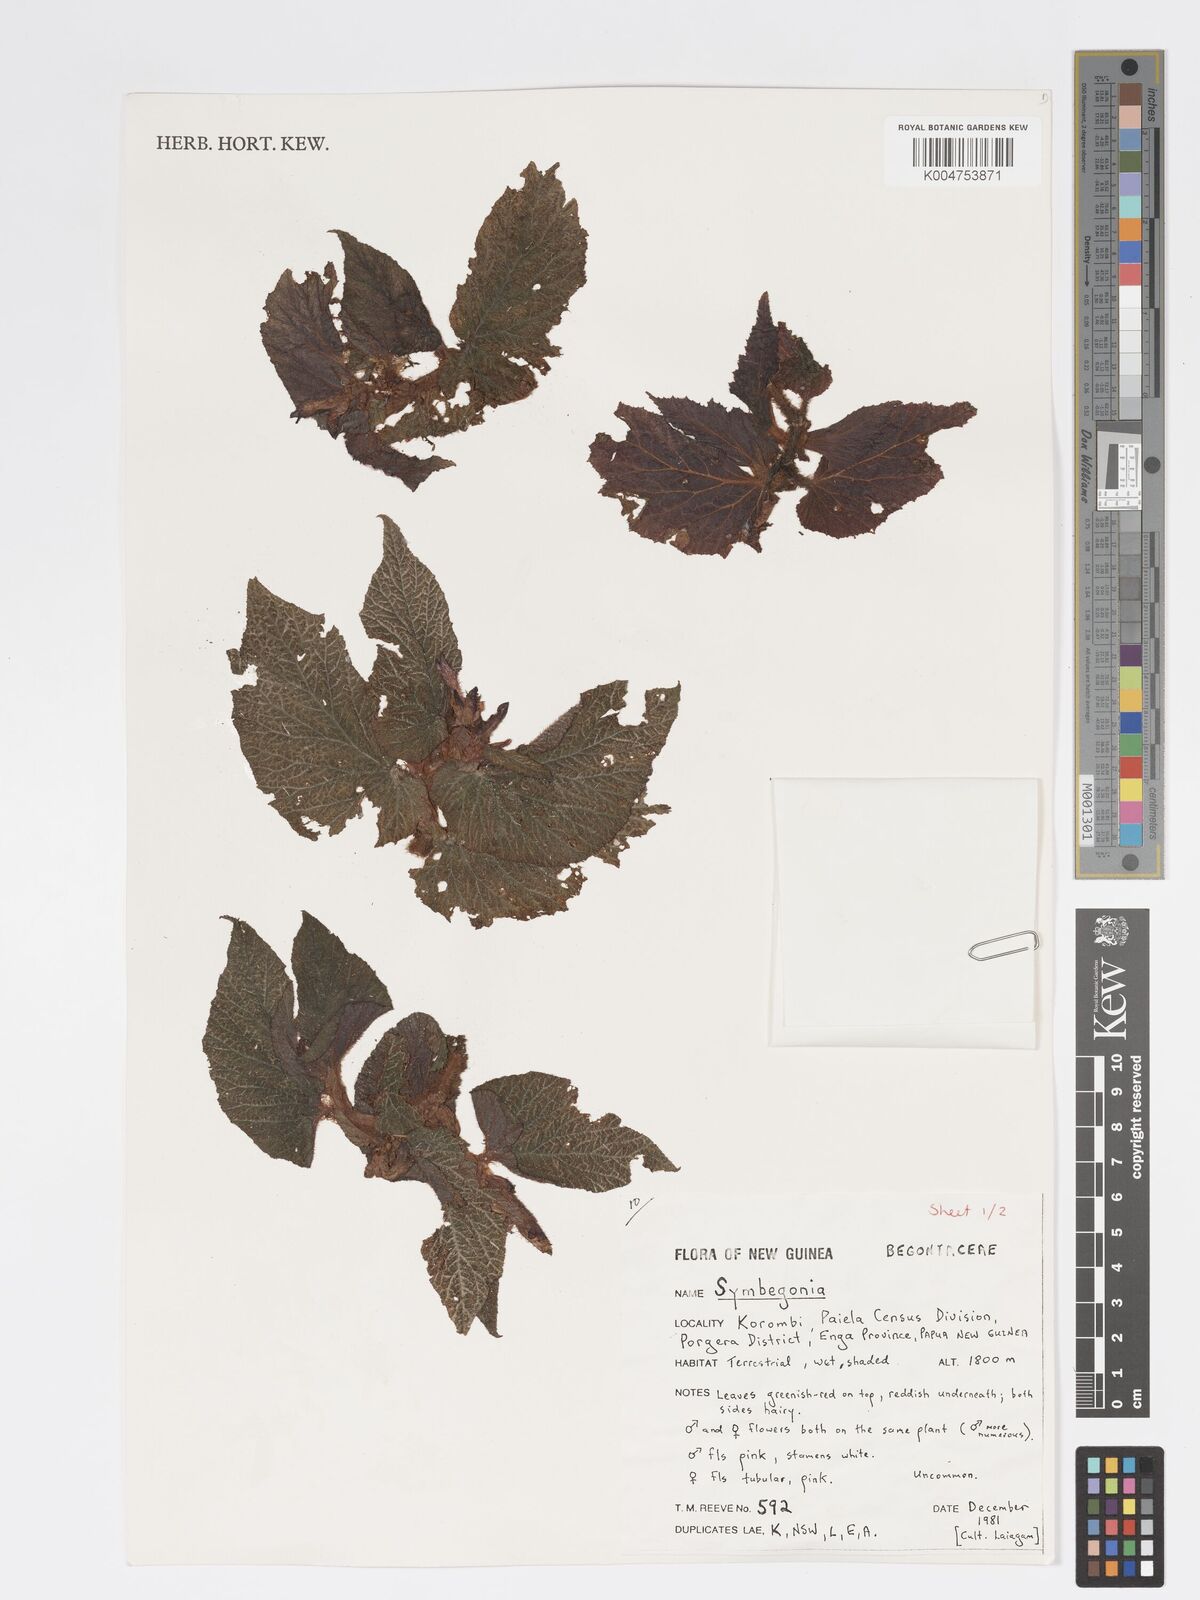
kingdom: Plantae
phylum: Tracheophyta
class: Magnoliopsida
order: Cucurbitales
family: Begoniaceae
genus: Begonia
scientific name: Begonia
